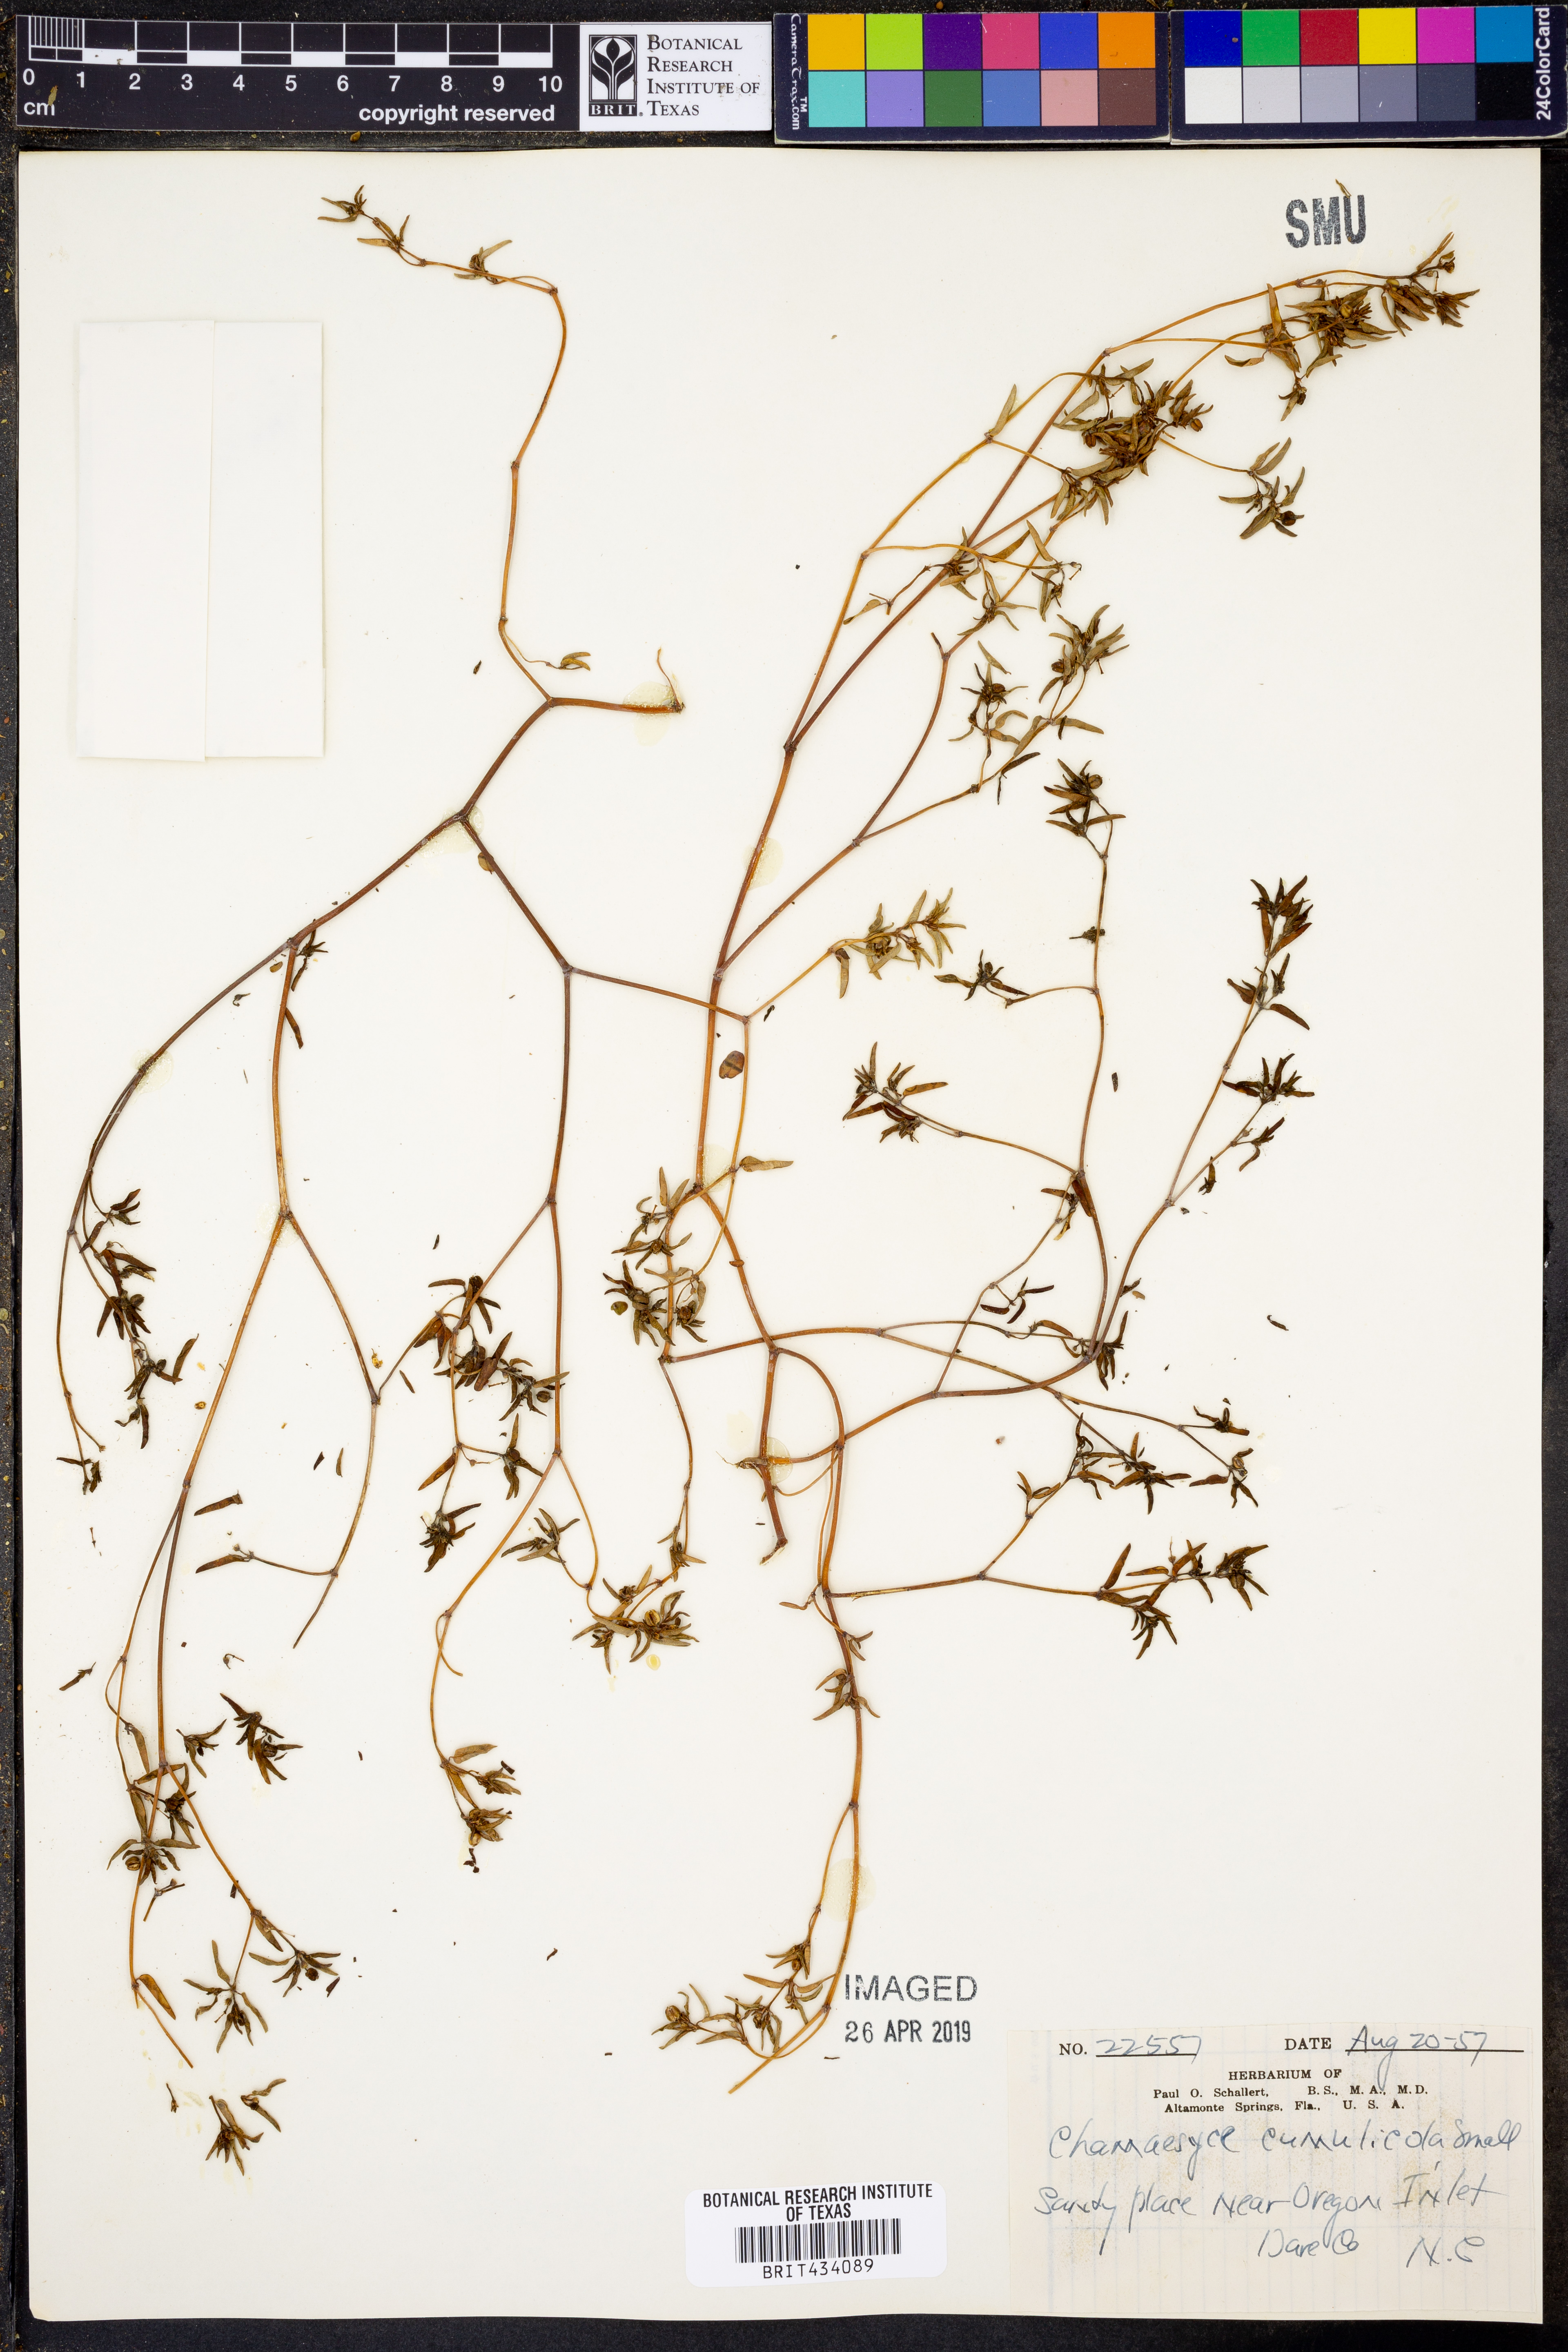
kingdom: Plantae
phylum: Tracheophyta
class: Magnoliopsida
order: Malpighiales
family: Euphorbiaceae
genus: Euphorbia
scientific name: Euphorbia cumulicola
